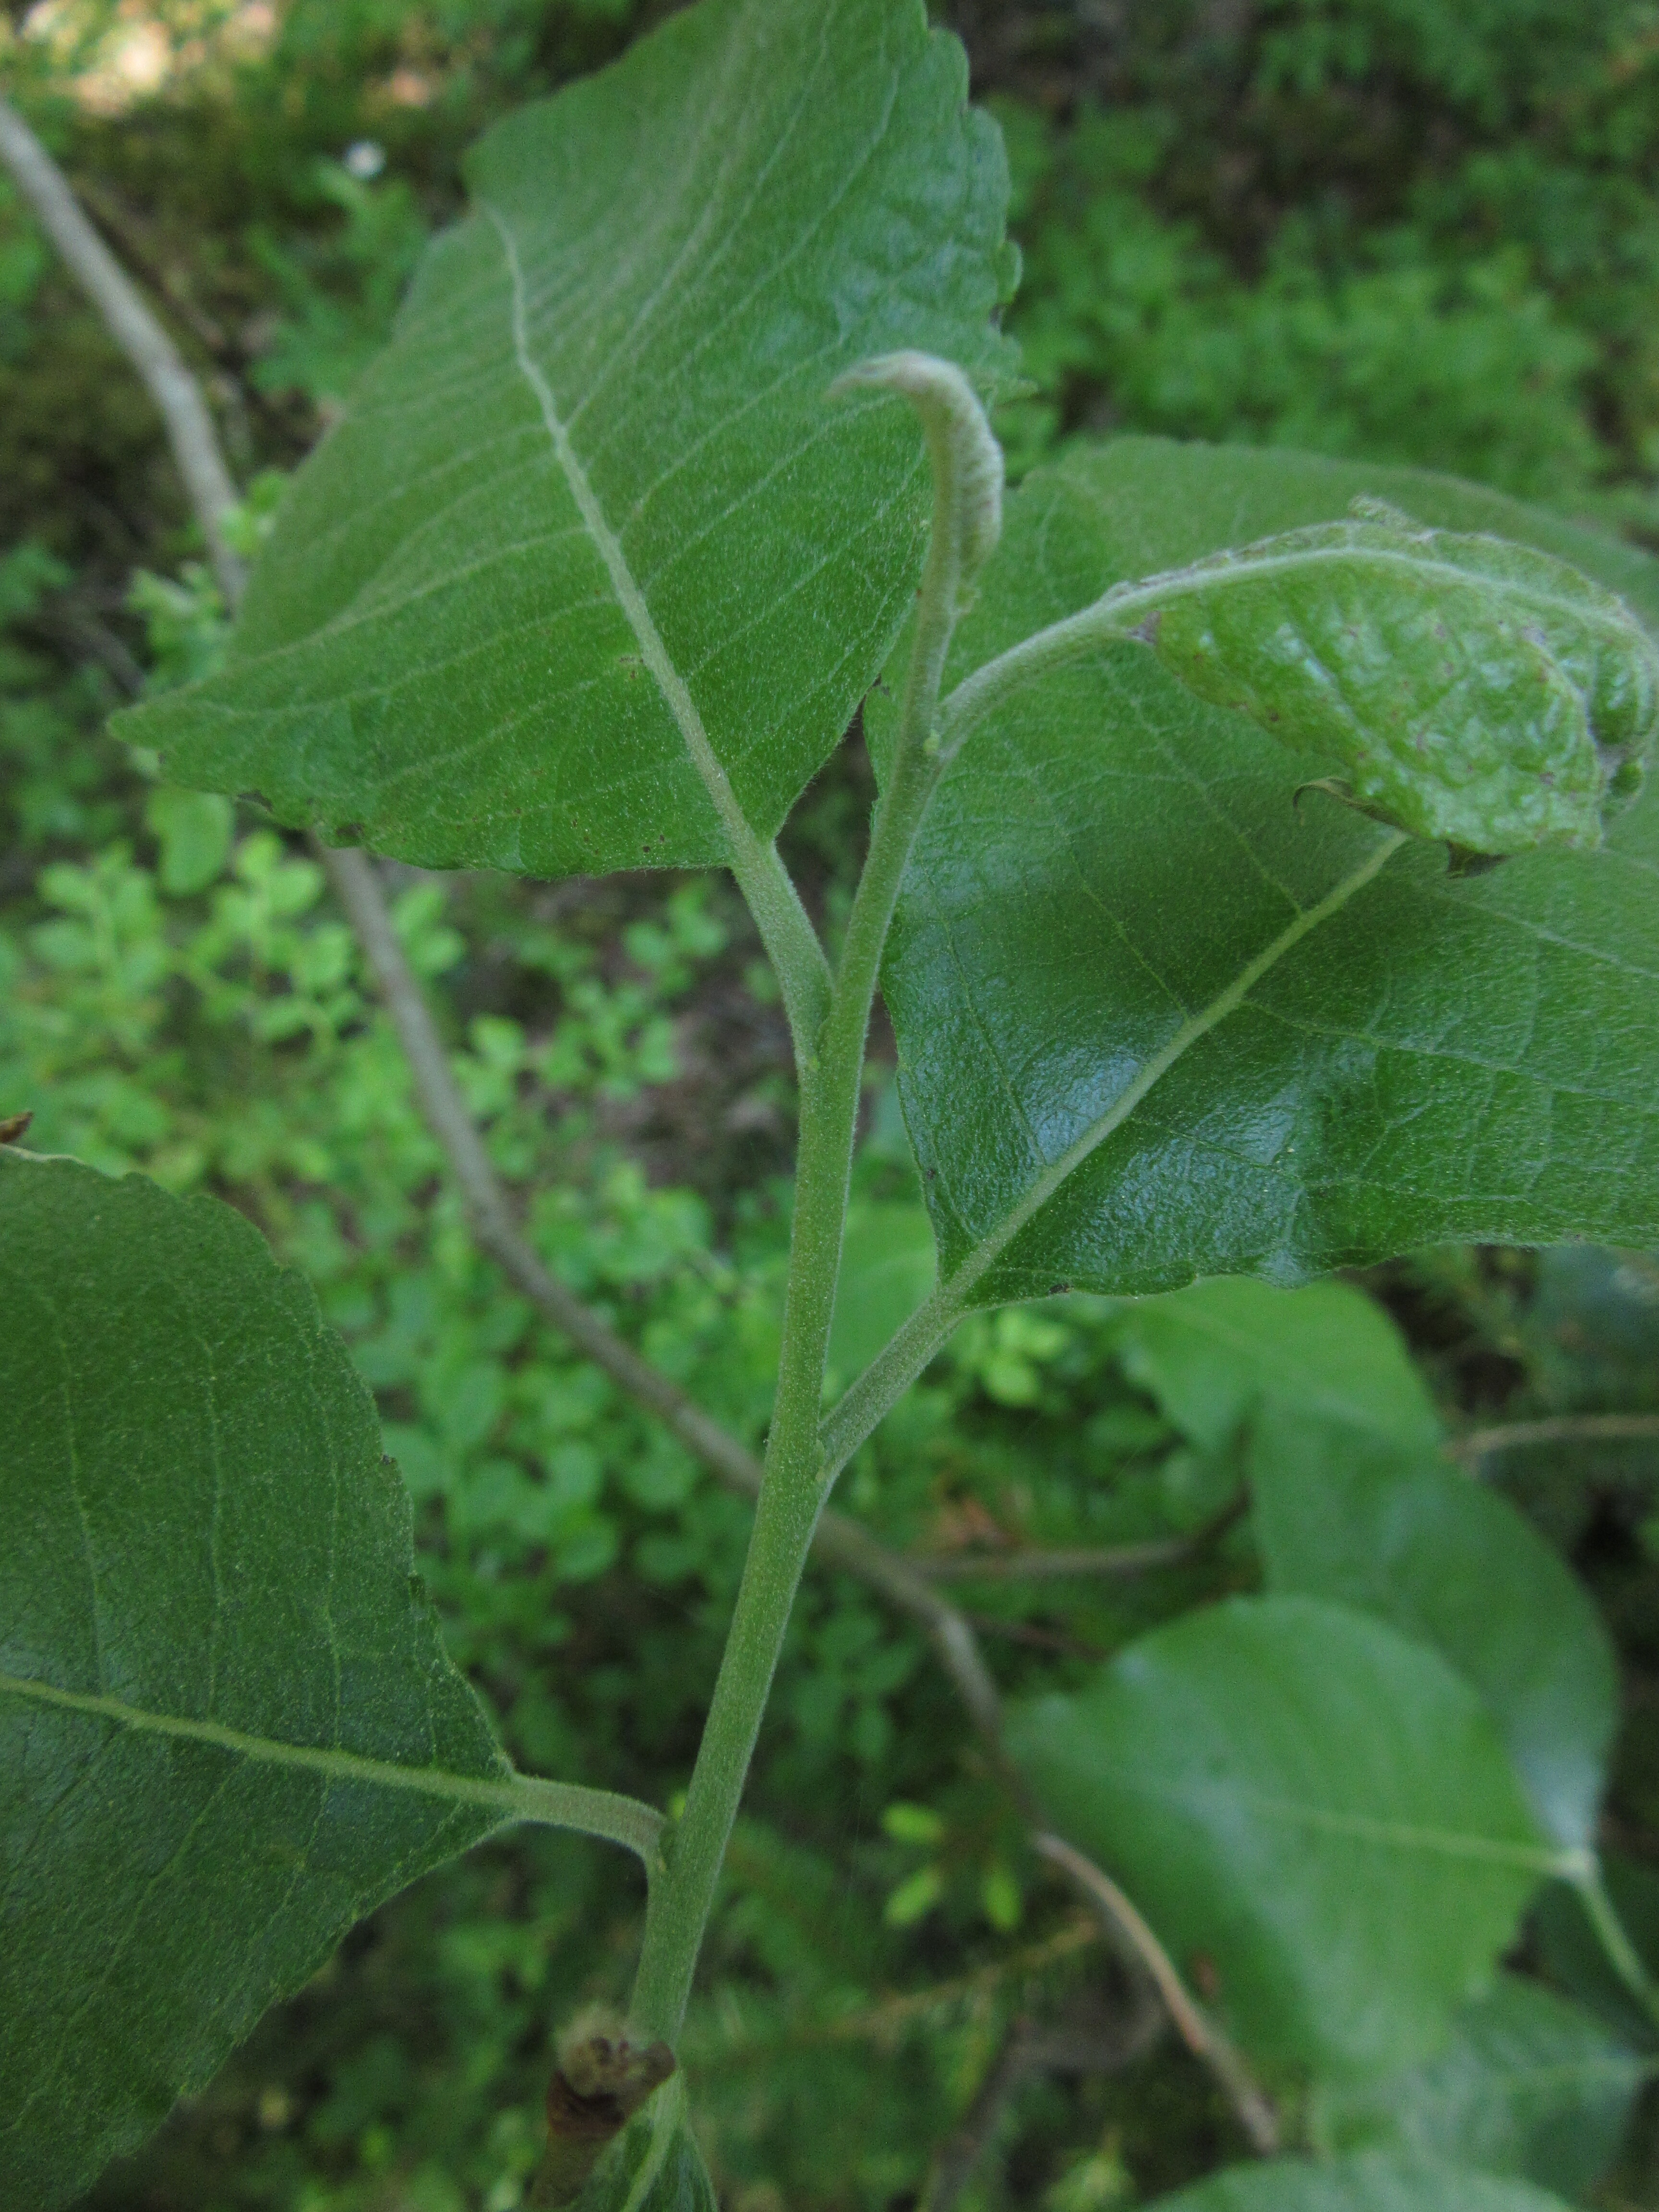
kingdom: Plantae
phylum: Tracheophyta
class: Magnoliopsida
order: Malpighiales
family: Salicaceae
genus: Salix
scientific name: Salix caprea
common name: Goat willow
